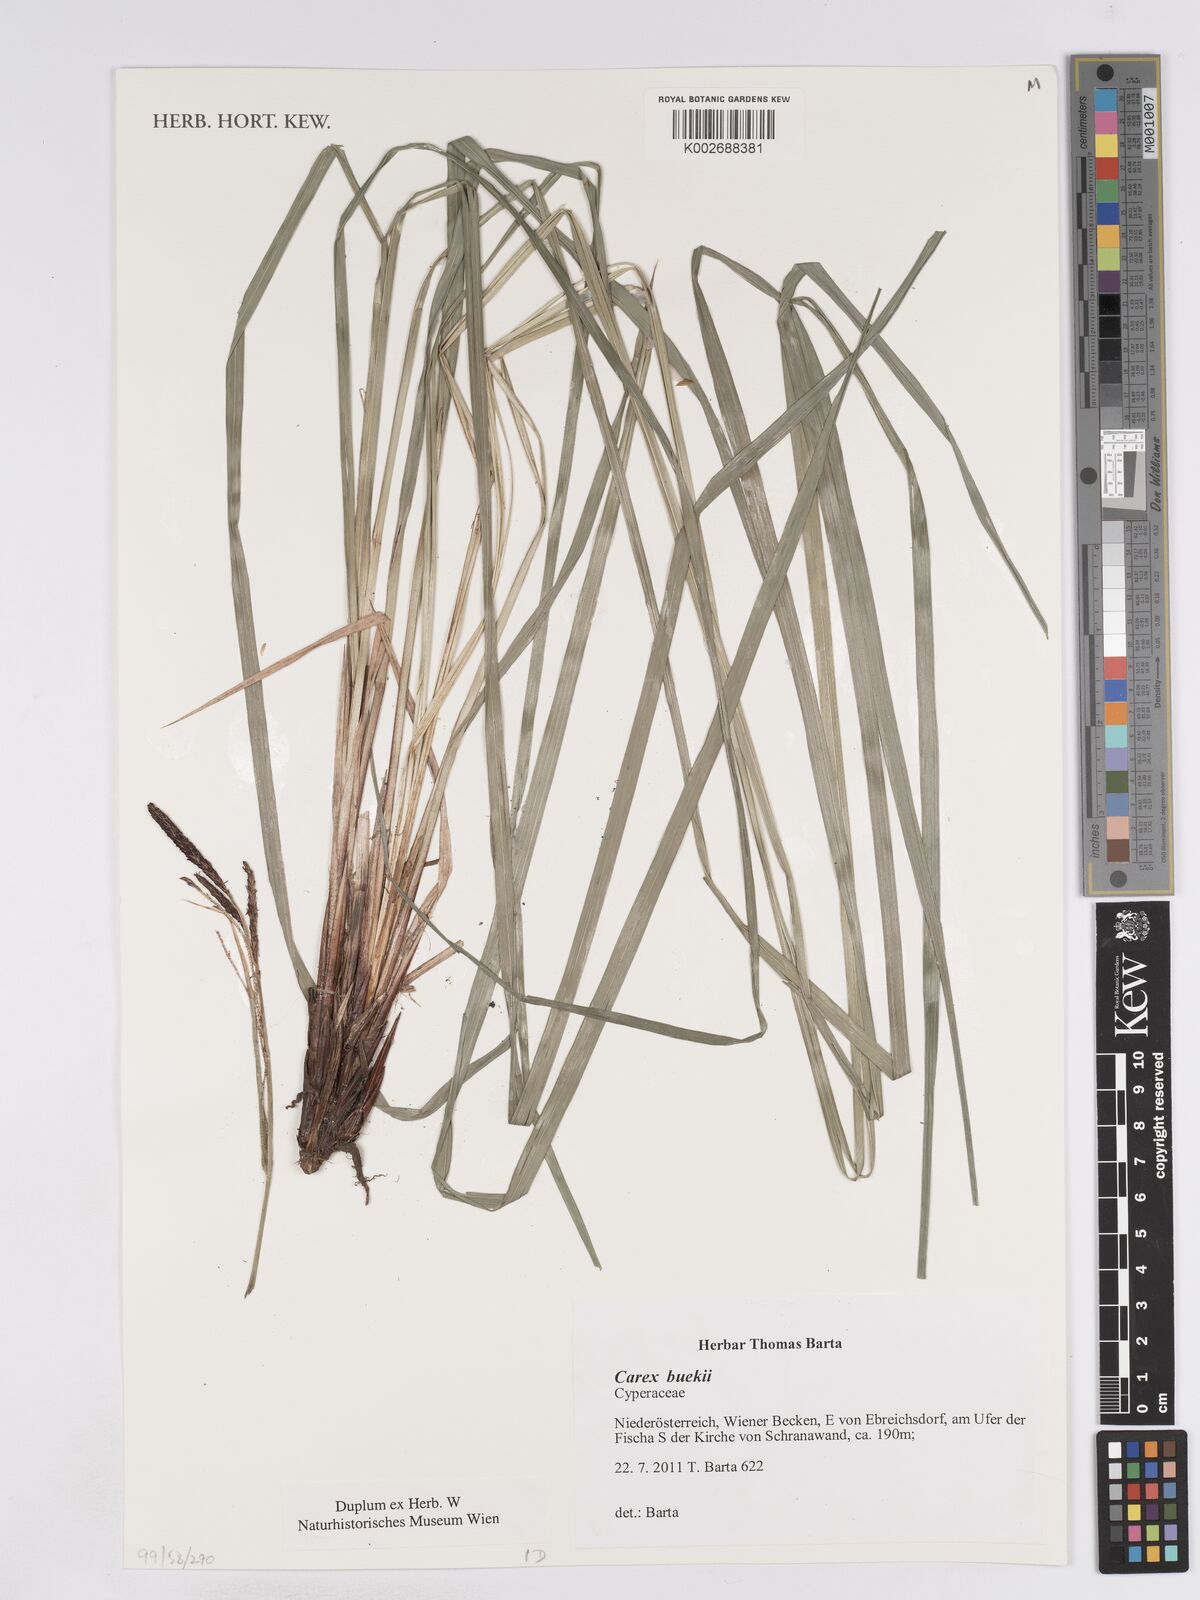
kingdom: Plantae
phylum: Tracheophyta
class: Liliopsida
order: Poales
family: Cyperaceae
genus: Carex
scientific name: Carex buekii
